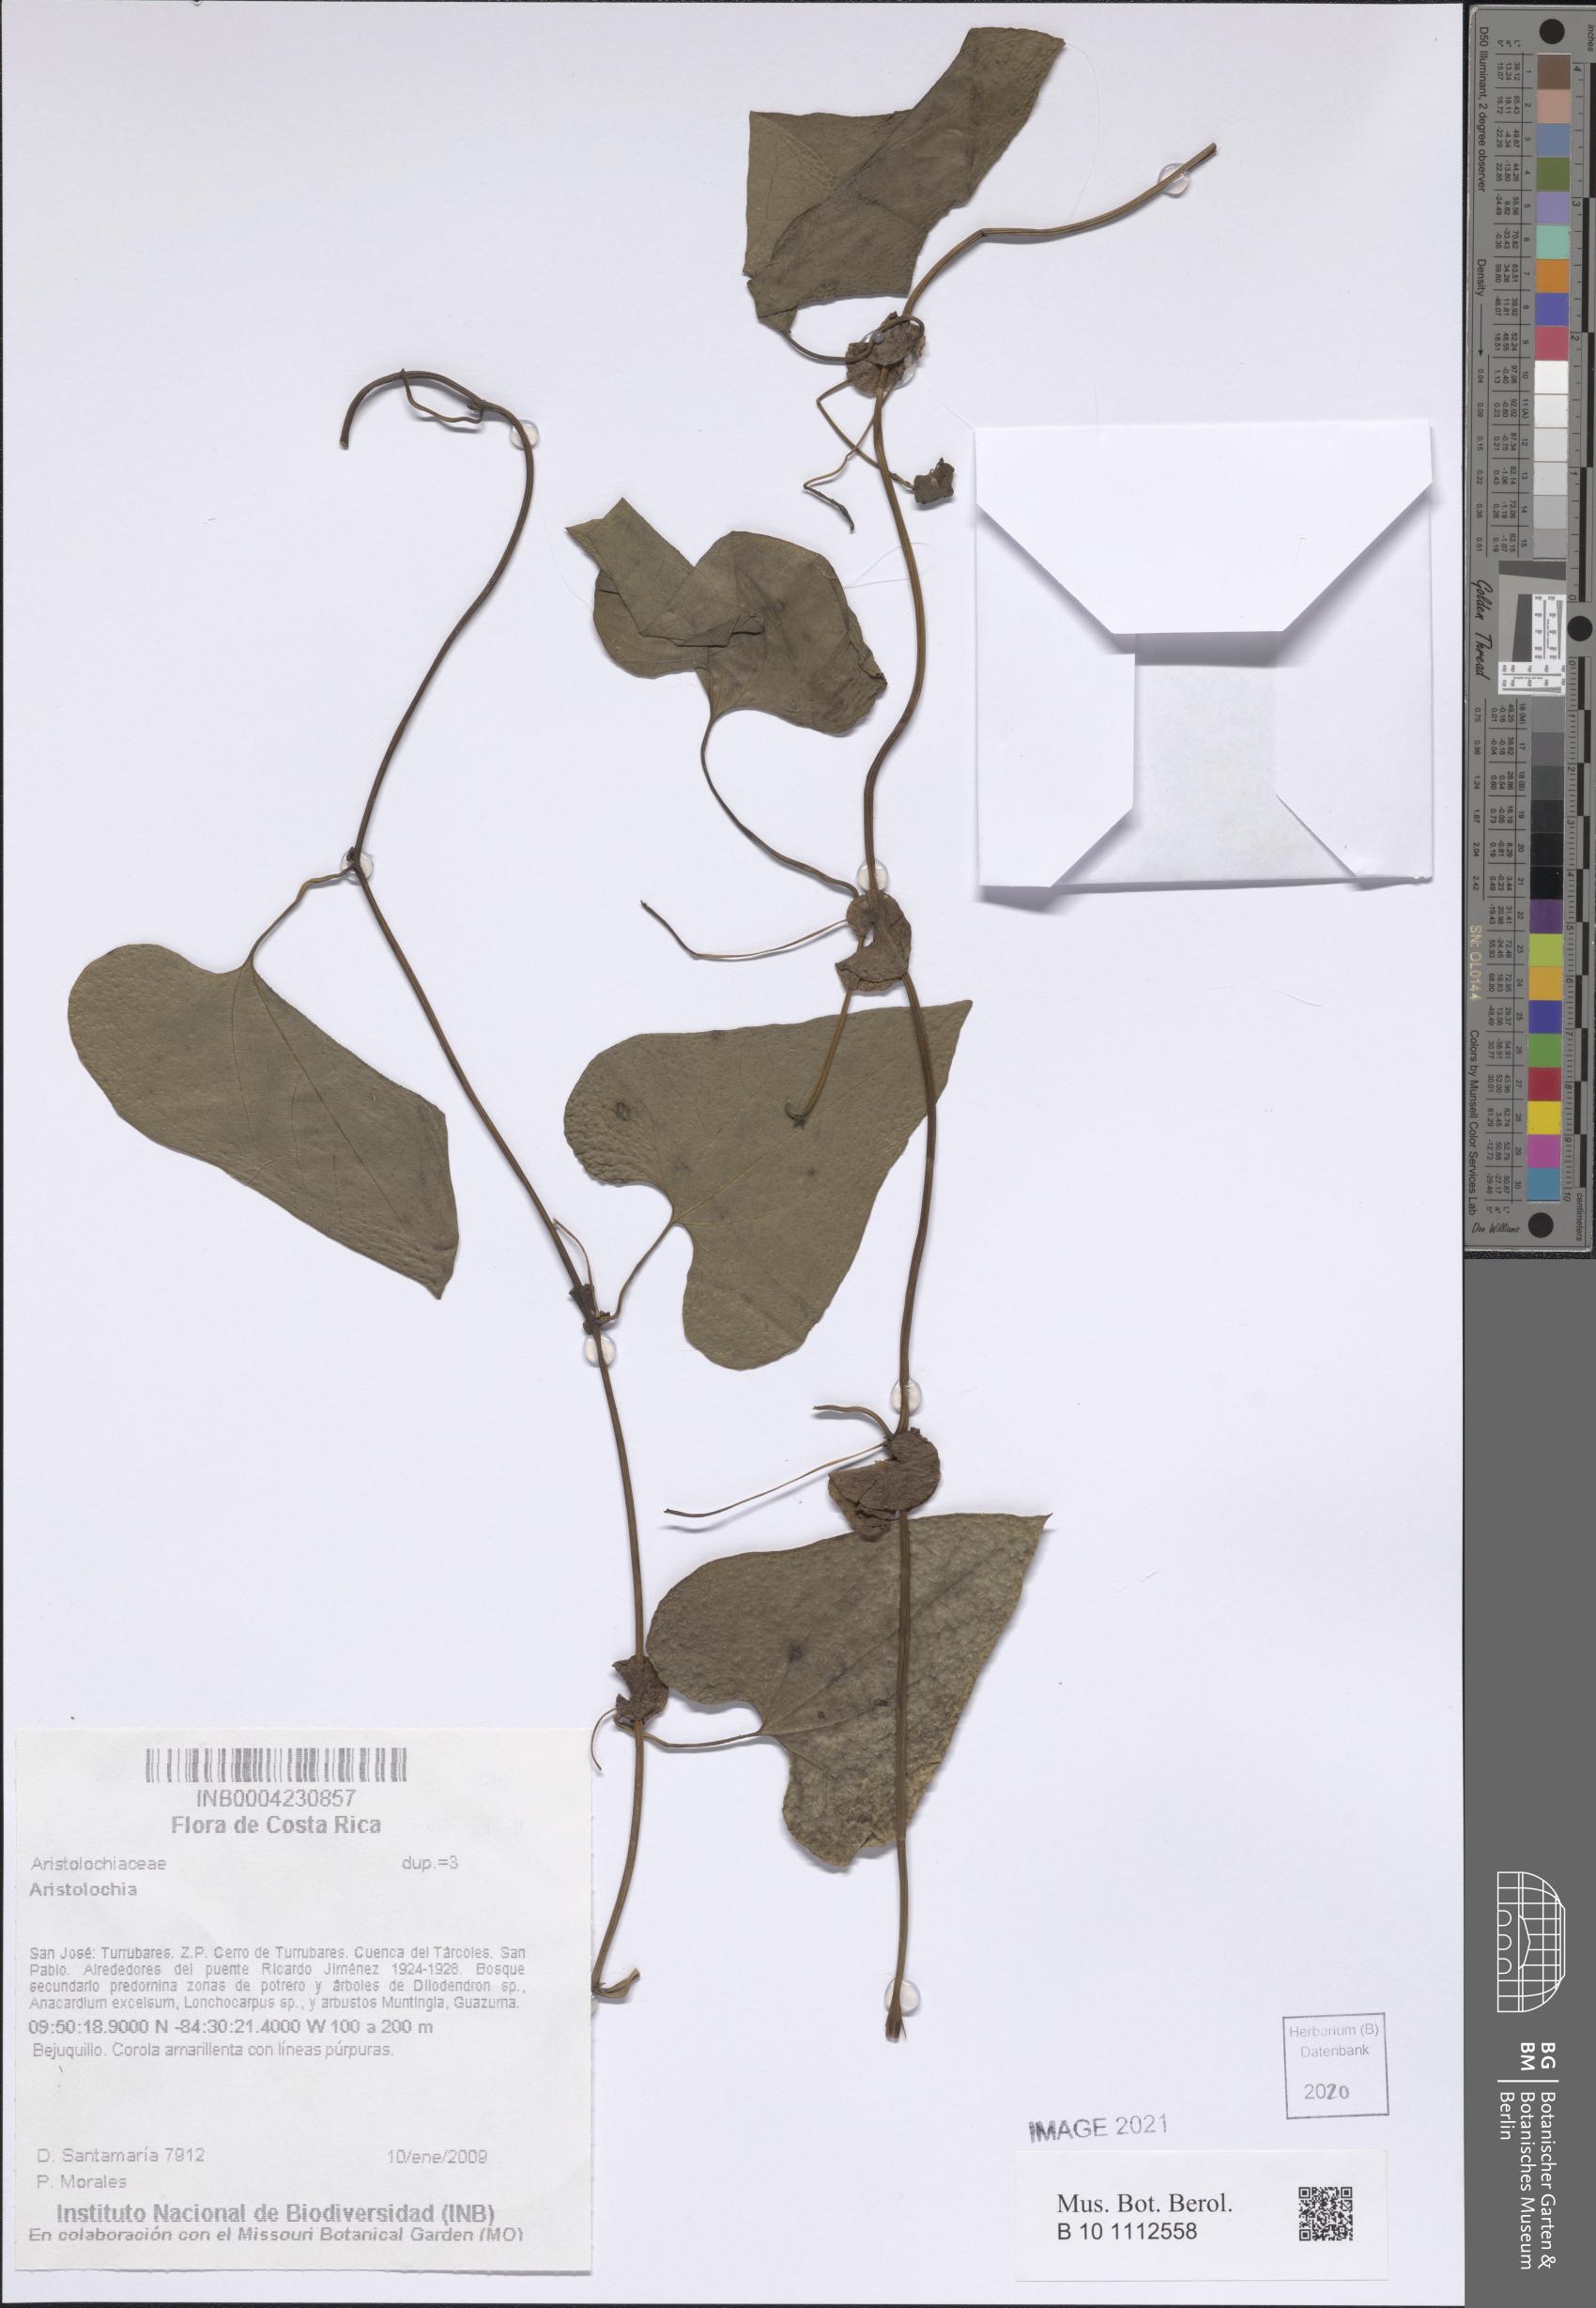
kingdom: Plantae
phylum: Tracheophyta
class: Magnoliopsida
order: Piperales
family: Aristolochiaceae
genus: Aristolochia
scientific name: Aristolochia
